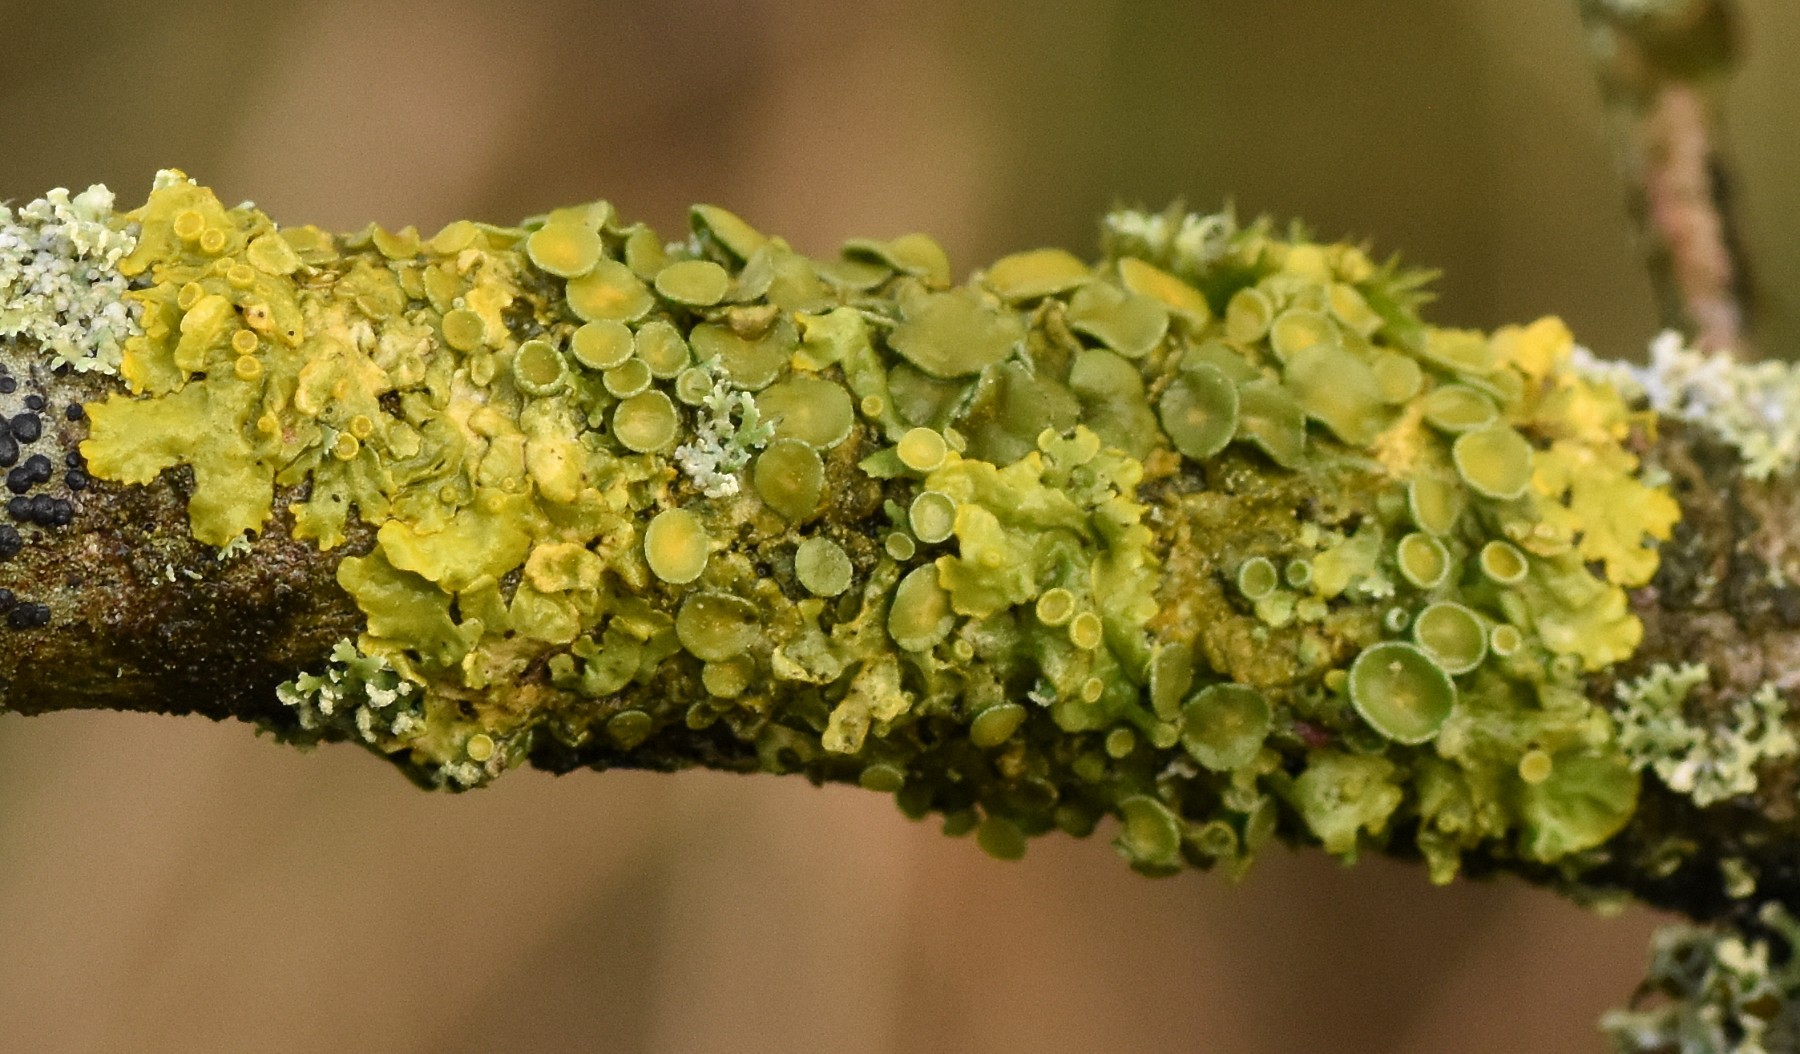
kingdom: Fungi
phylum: Ascomycota
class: Lecanoromycetes
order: Teloschistales
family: Teloschistaceae
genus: Xanthoria
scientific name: Xanthoria parietina
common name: almindelig væggelav
